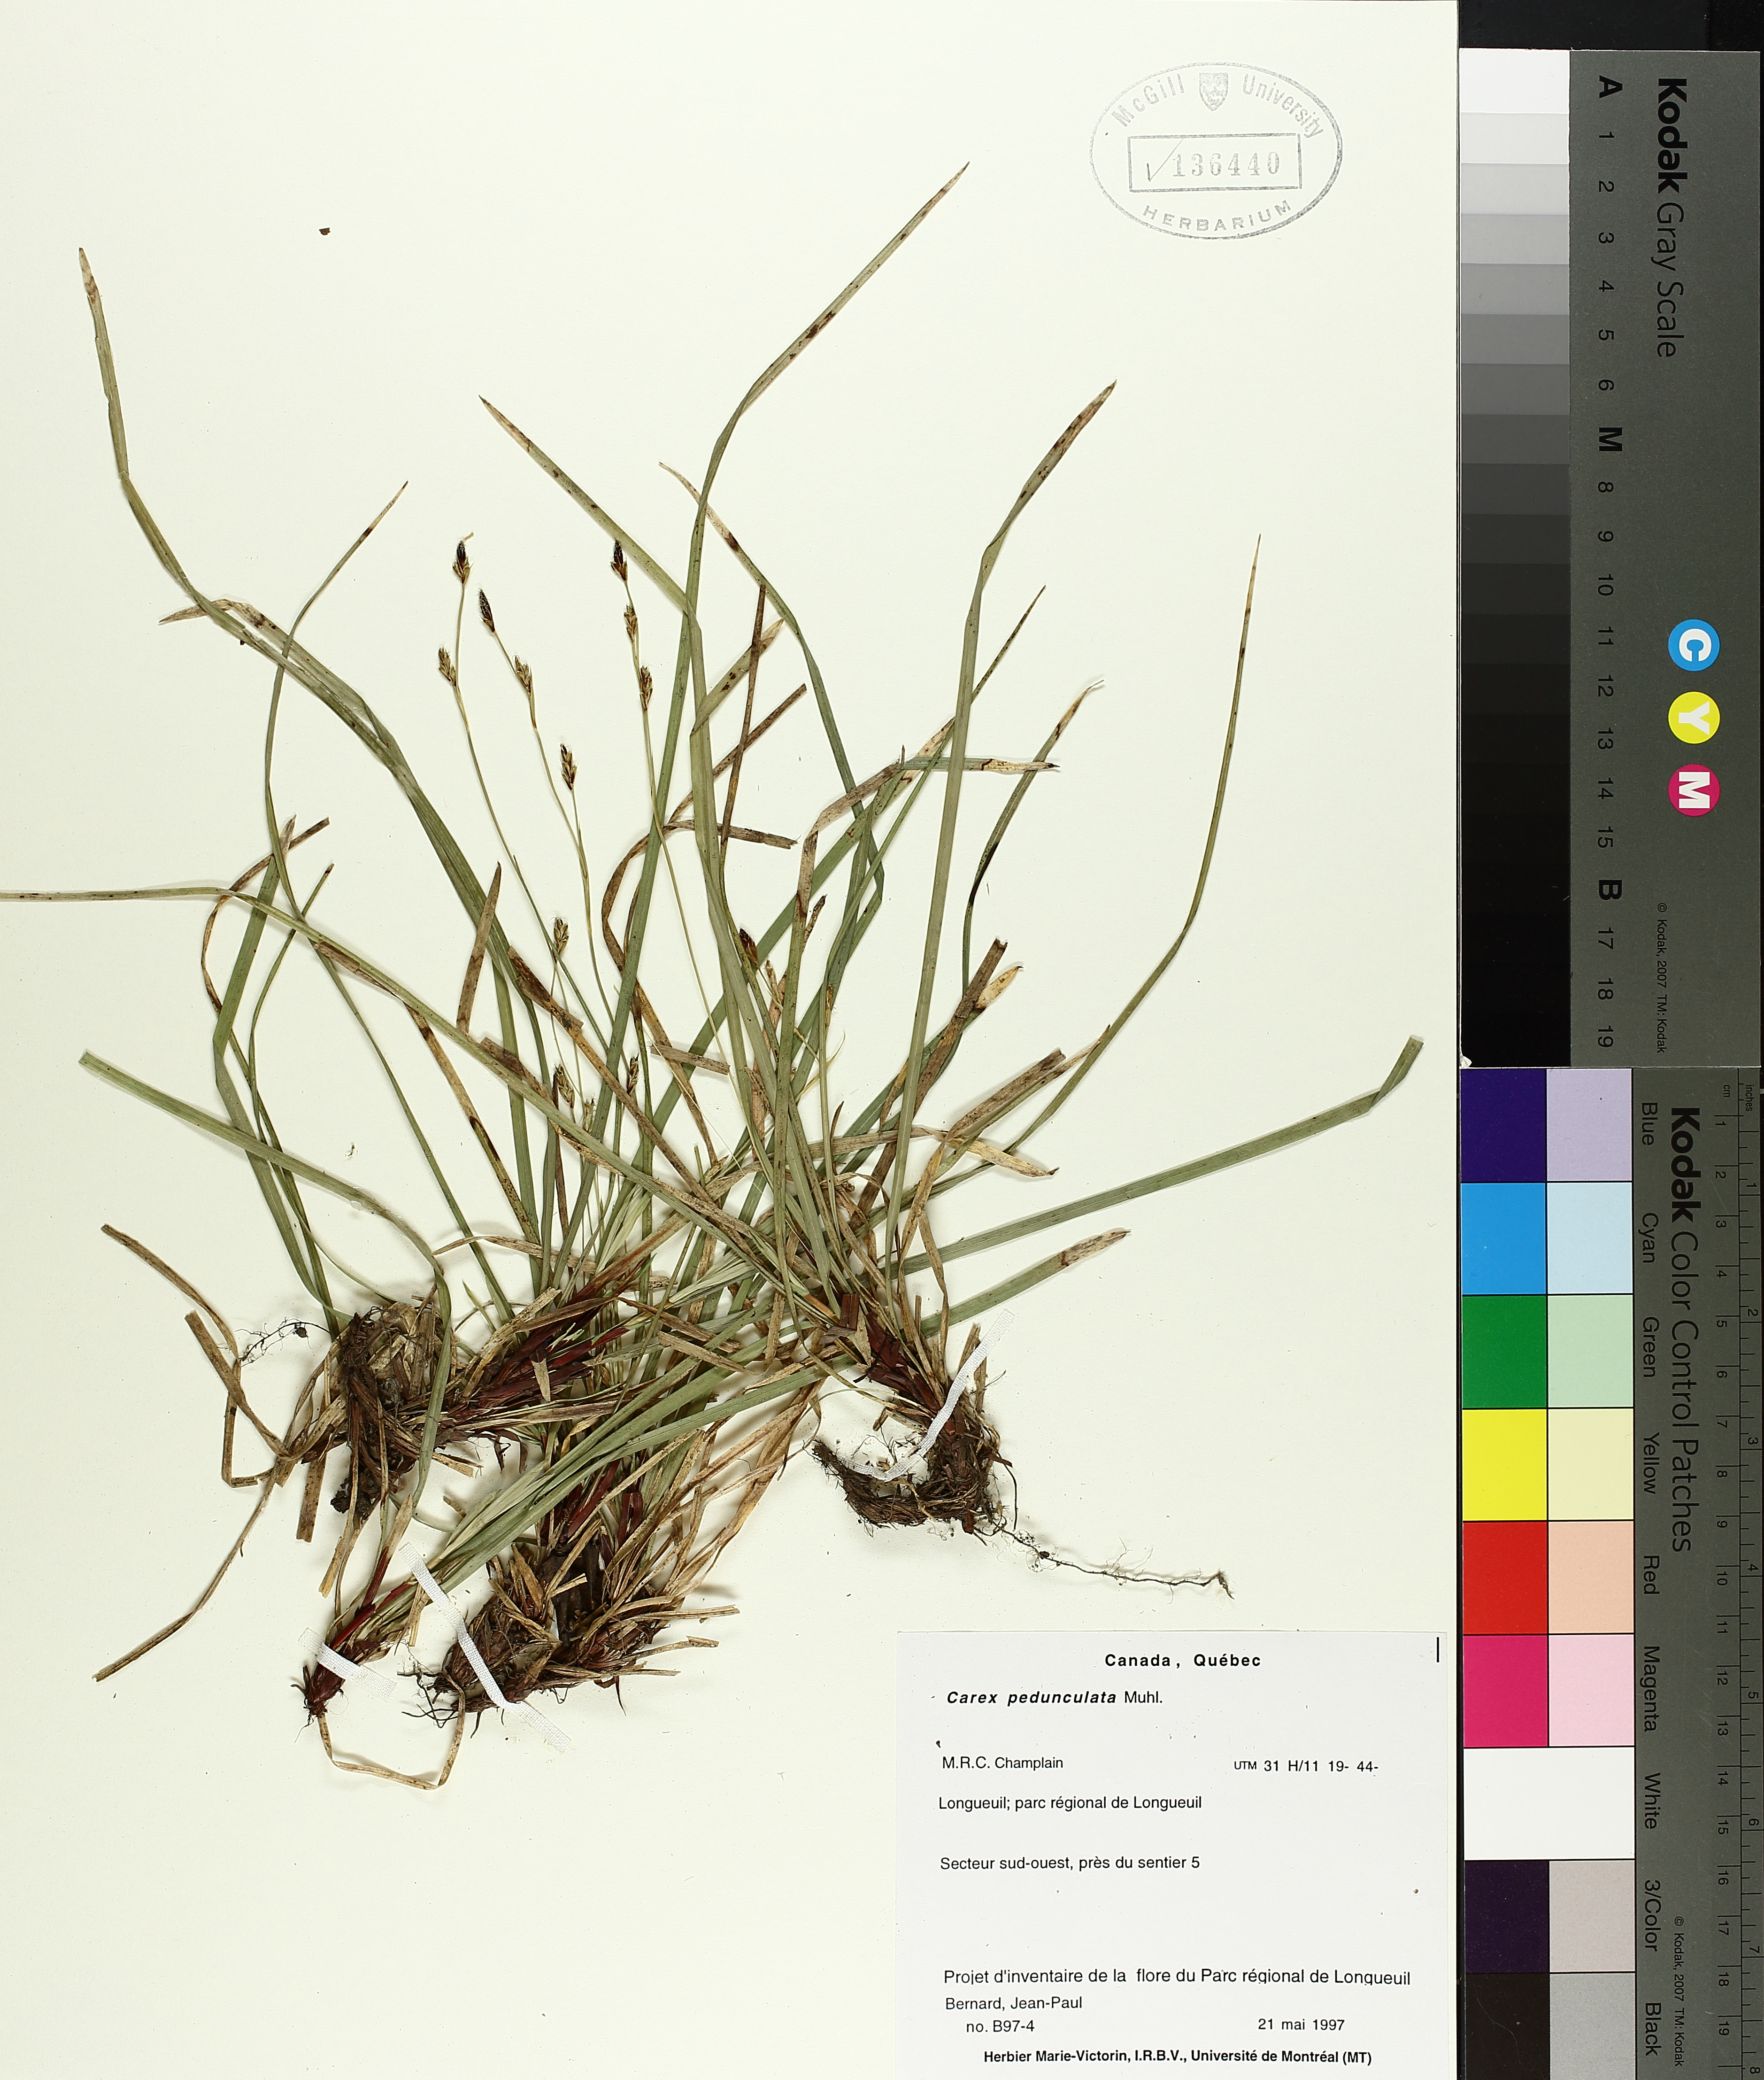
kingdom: Plantae
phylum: Tracheophyta
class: Liliopsida
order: Poales
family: Cyperaceae
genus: Carex
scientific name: Carex pedunculata
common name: Pedunculate sedge
